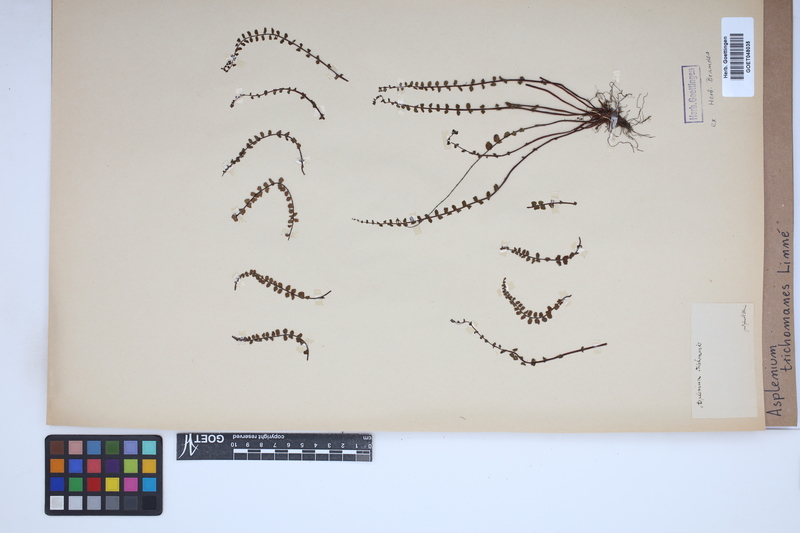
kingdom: Plantae
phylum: Tracheophyta
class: Polypodiopsida
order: Polypodiales
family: Aspleniaceae
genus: Asplenium
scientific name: Asplenium trichomanes
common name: Maidenhair spleenwort
